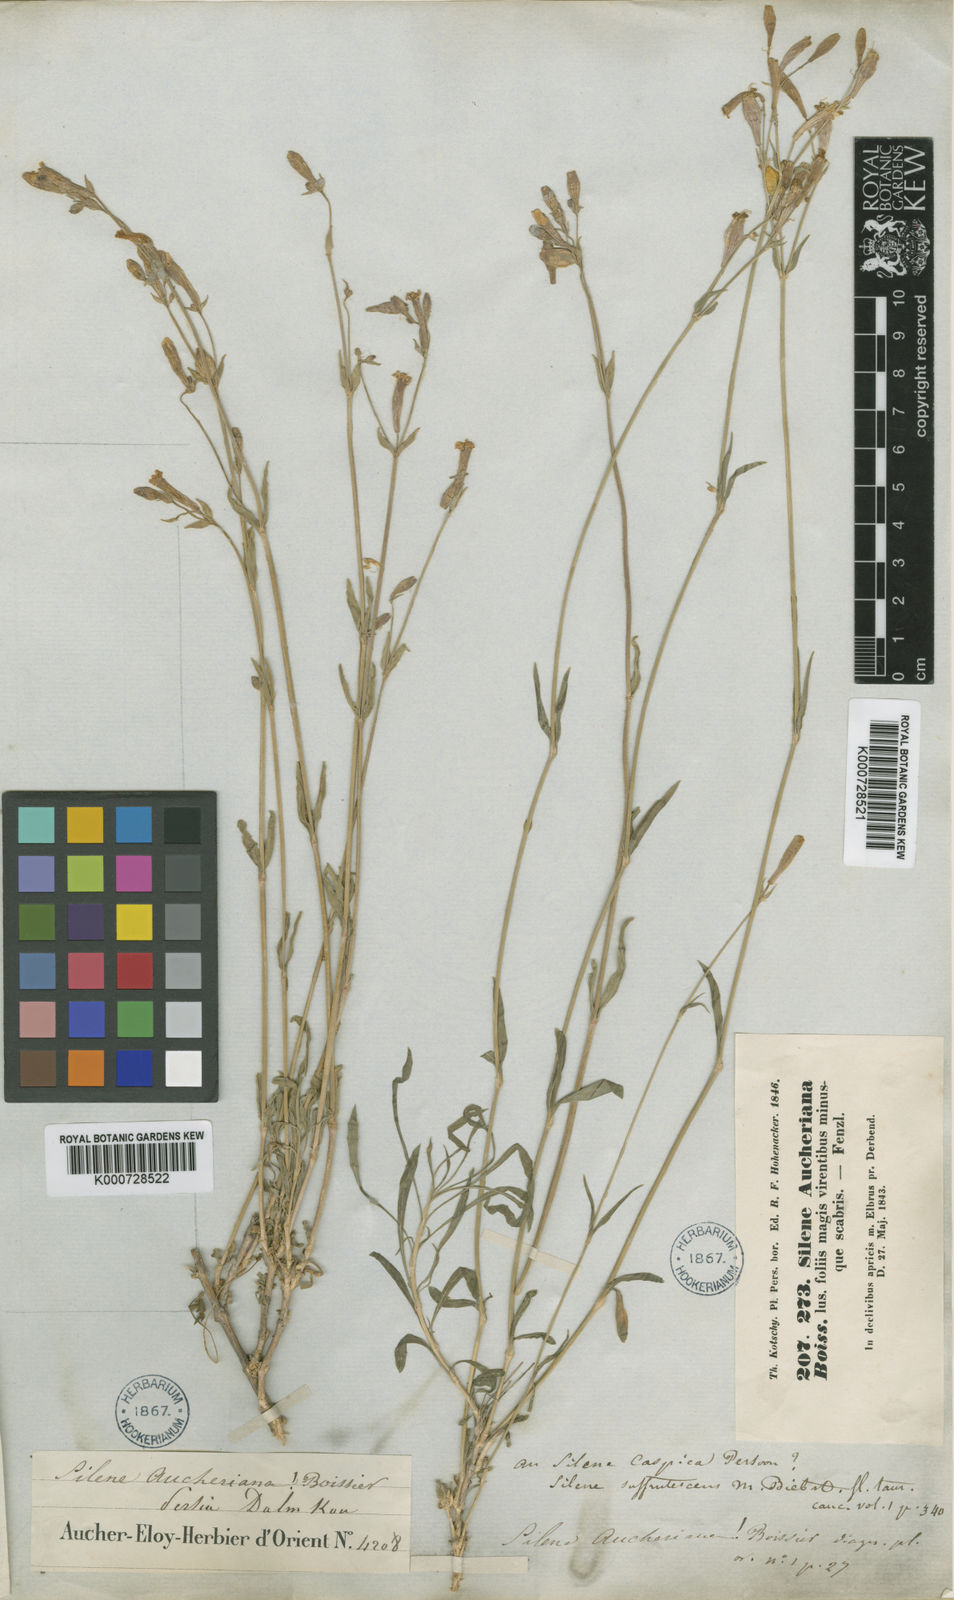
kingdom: Plantae
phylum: Tracheophyta
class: Magnoliopsida
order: Caryophyllales
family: Caryophyllaceae
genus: Silene
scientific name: Silene aucheriana
